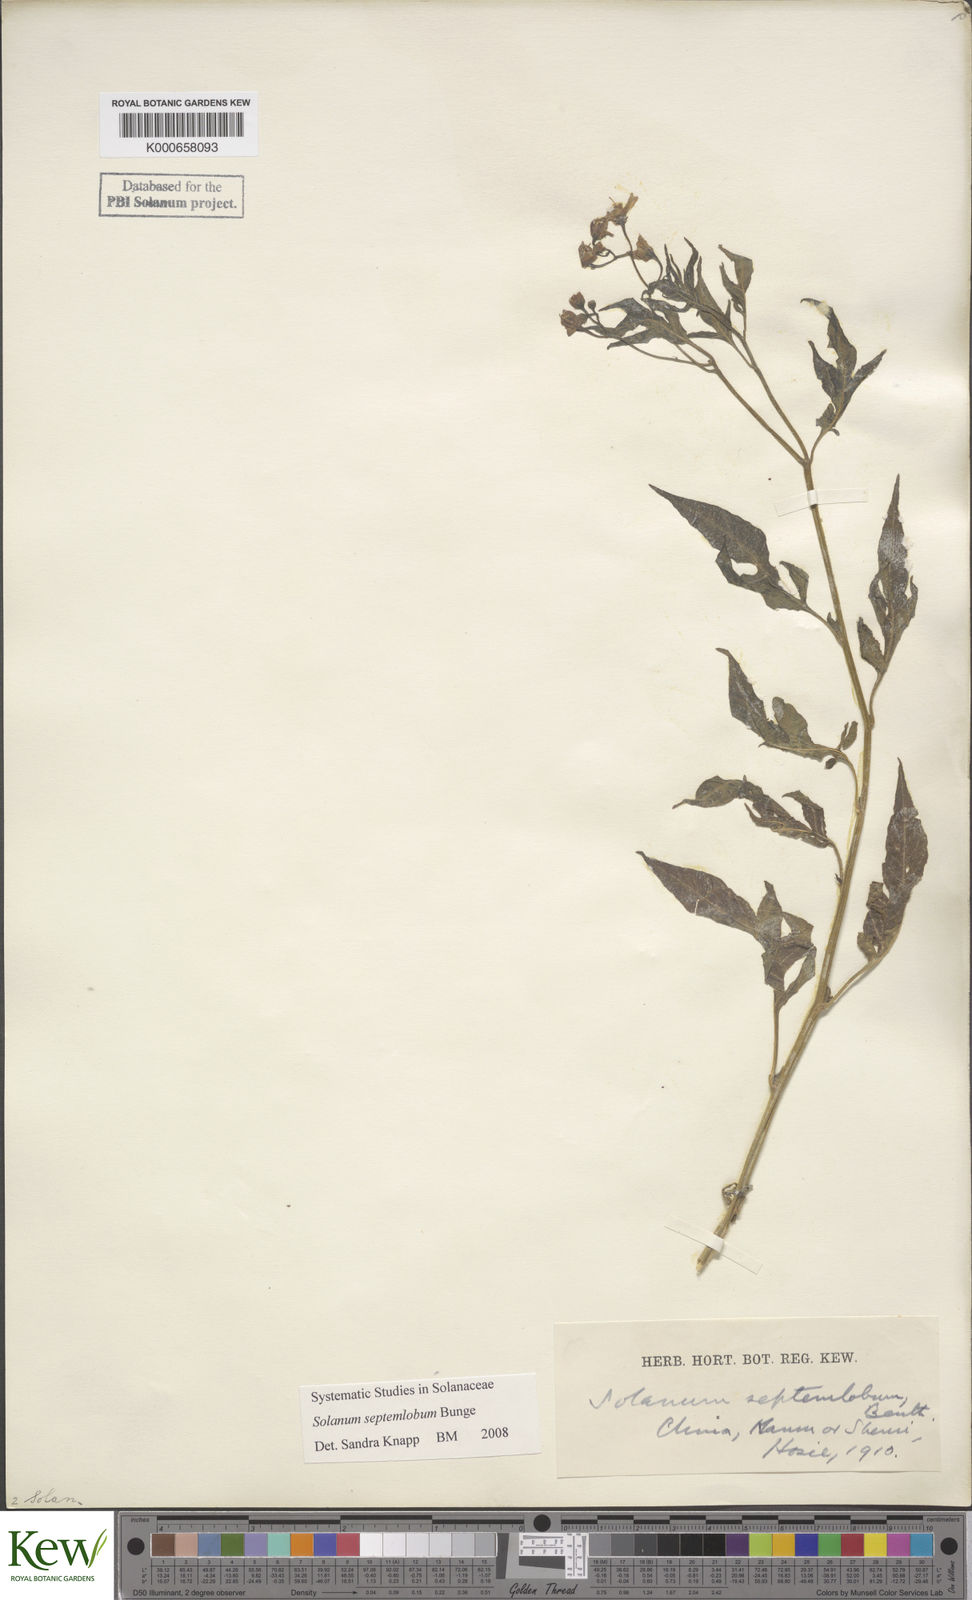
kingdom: Plantae
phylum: Tracheophyta
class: Magnoliopsida
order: Solanales
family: Solanaceae
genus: Solanum
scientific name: Solanum septemlobum
